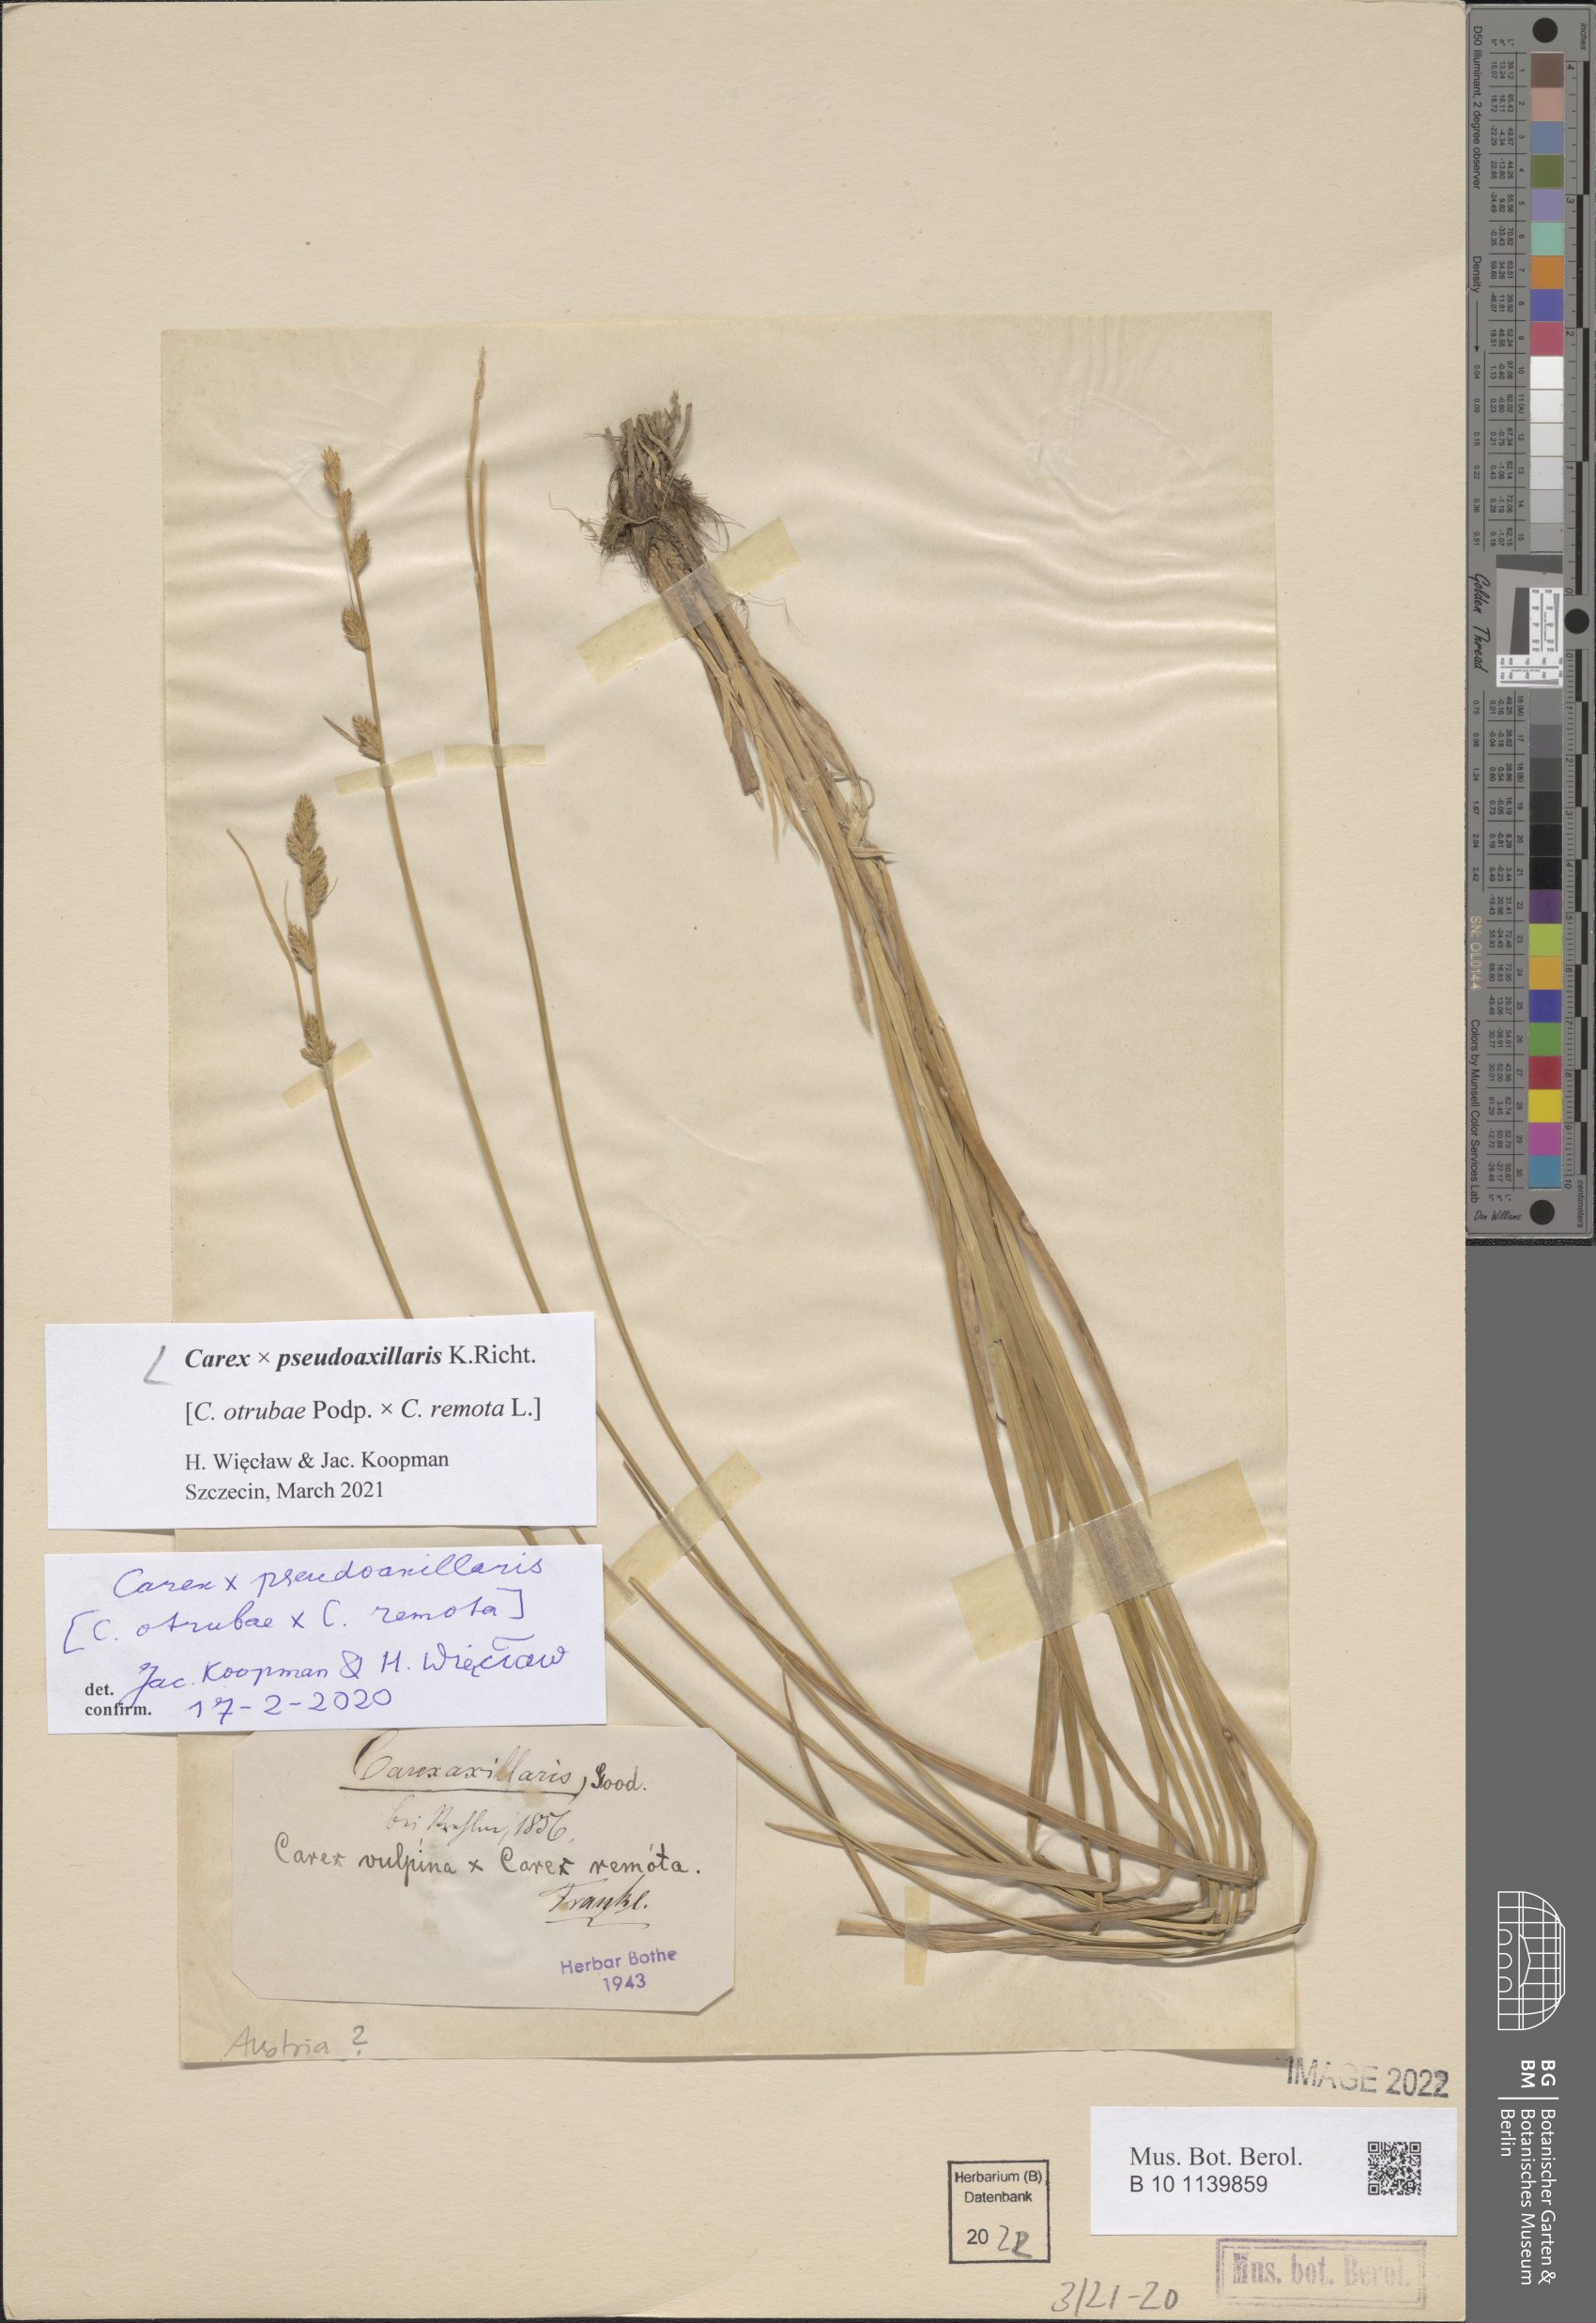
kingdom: Plantae
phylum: Tracheophyta
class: Liliopsida
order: Poales
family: Cyperaceae
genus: Carex
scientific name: Carex pseudoaxillaris
